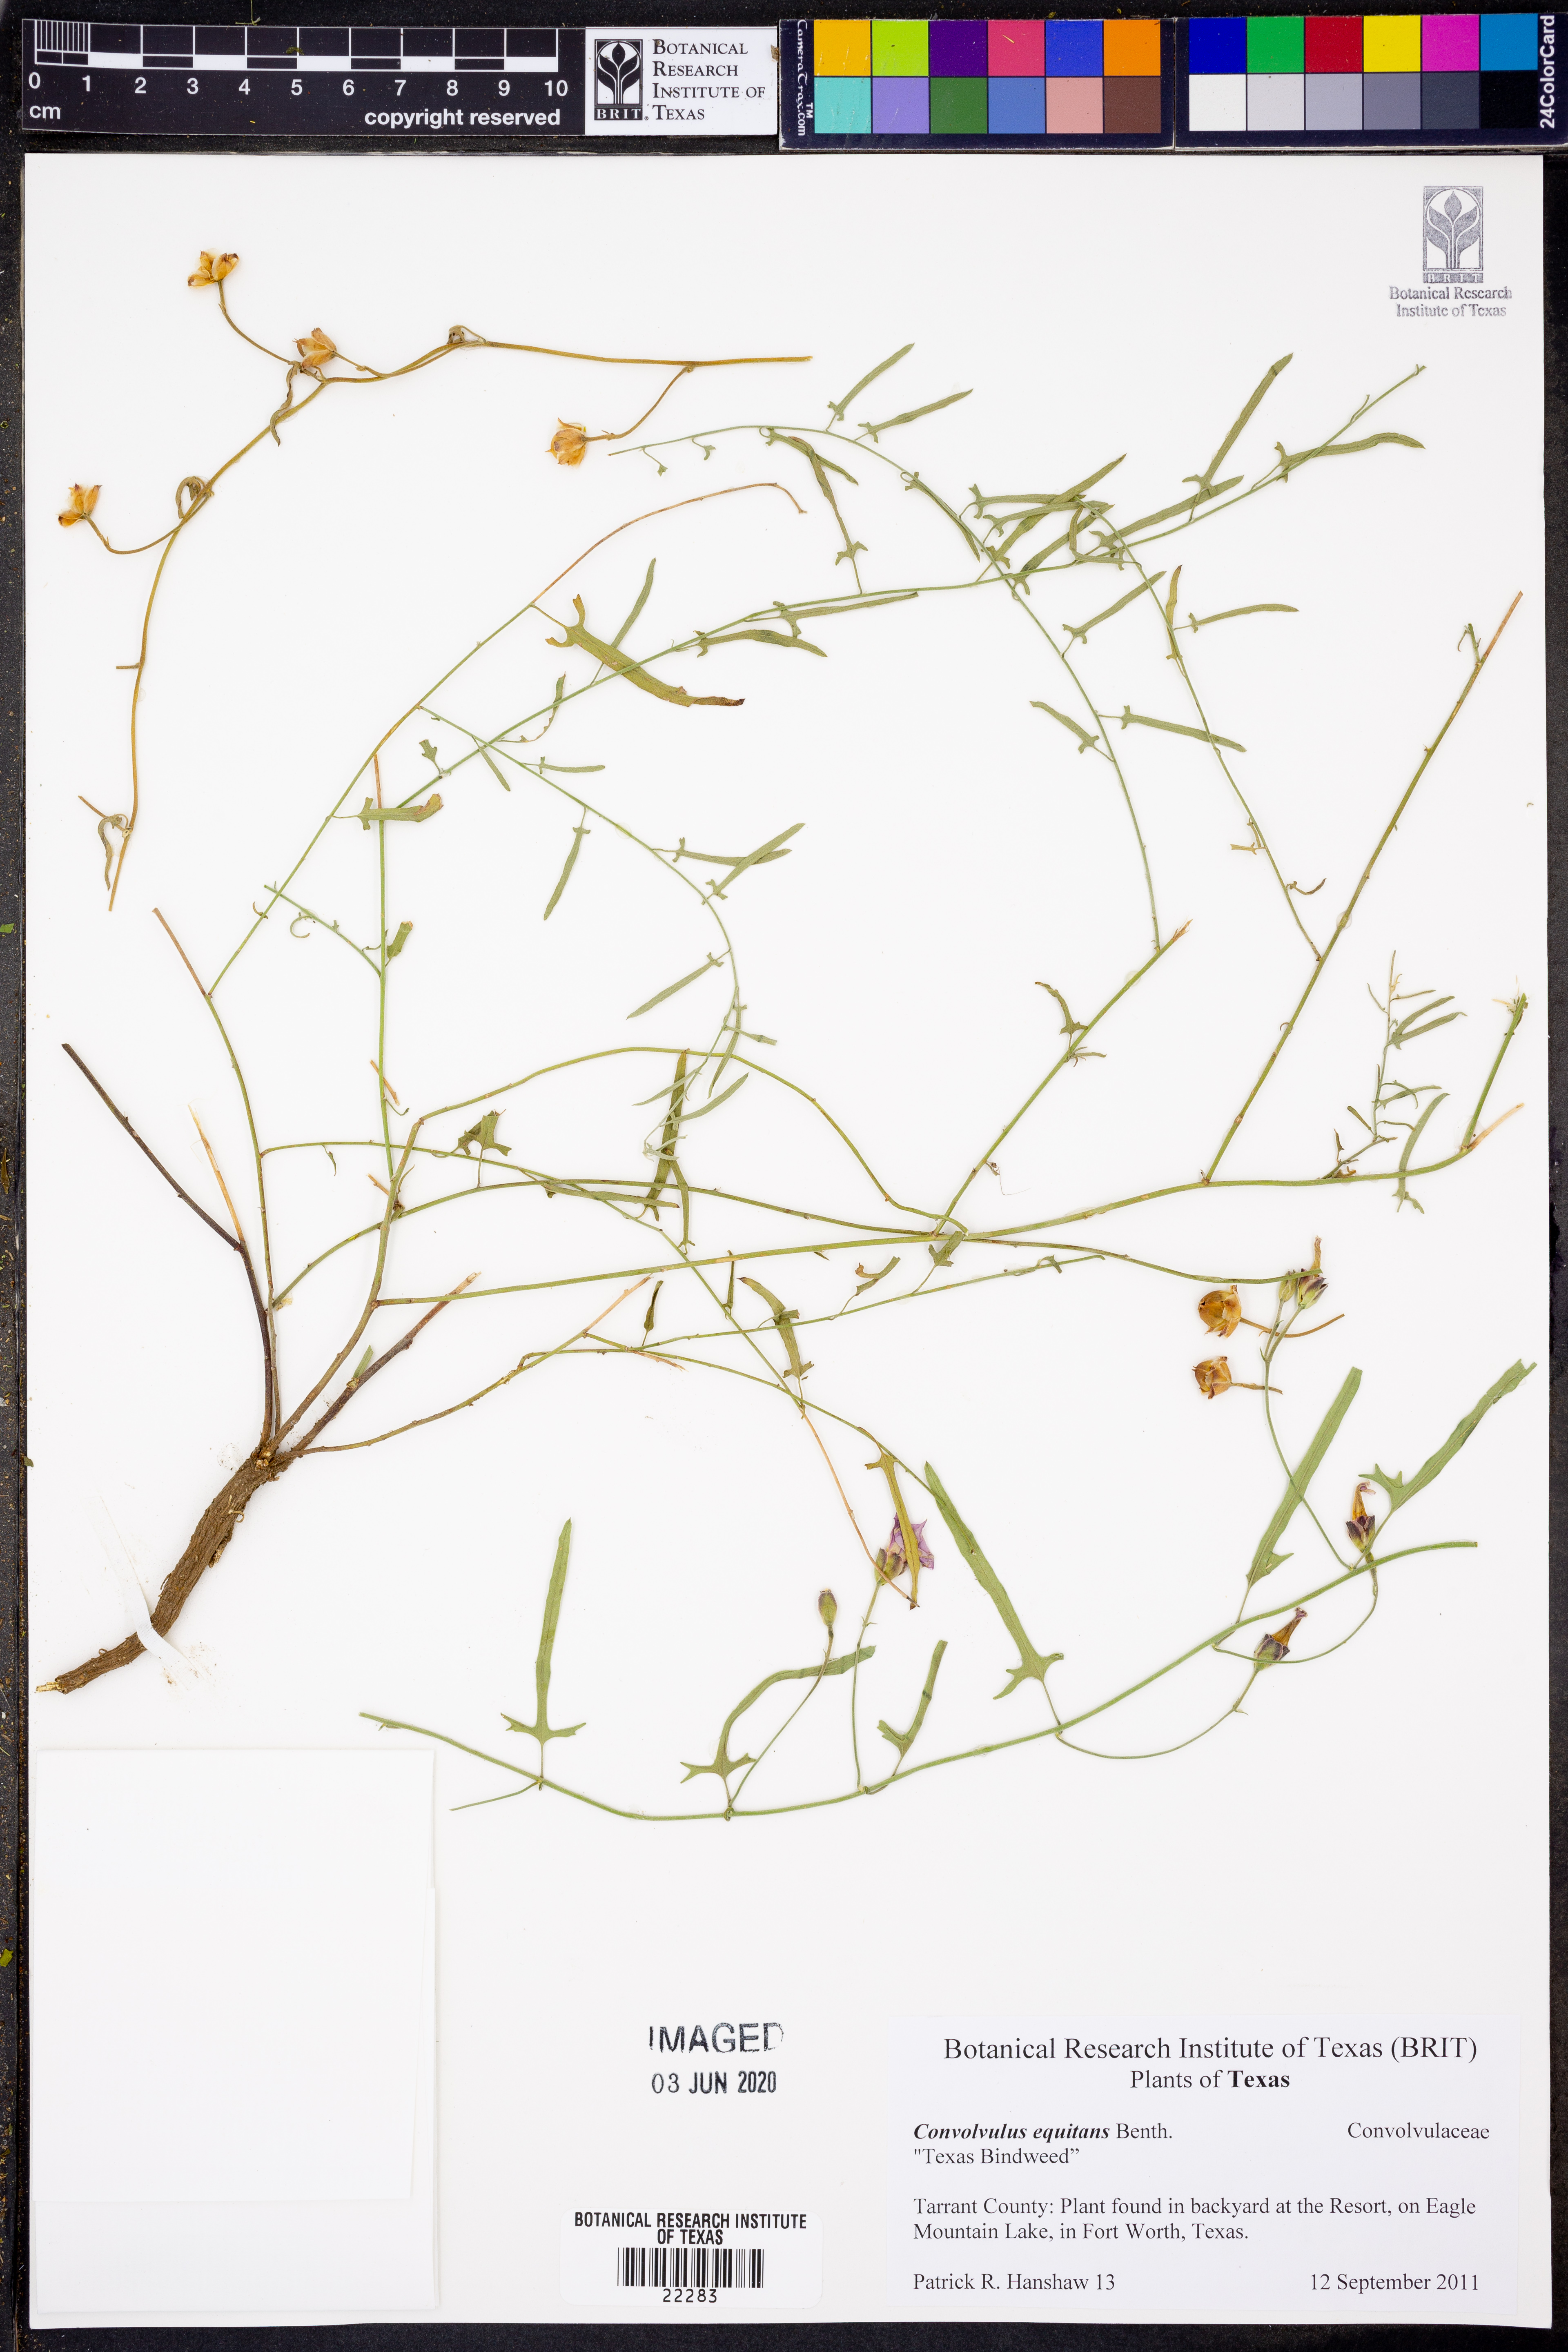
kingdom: Plantae
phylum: Tracheophyta
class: Magnoliopsida
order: Solanales
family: Convolvulaceae
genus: Convolvulus
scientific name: Convolvulus equitans
